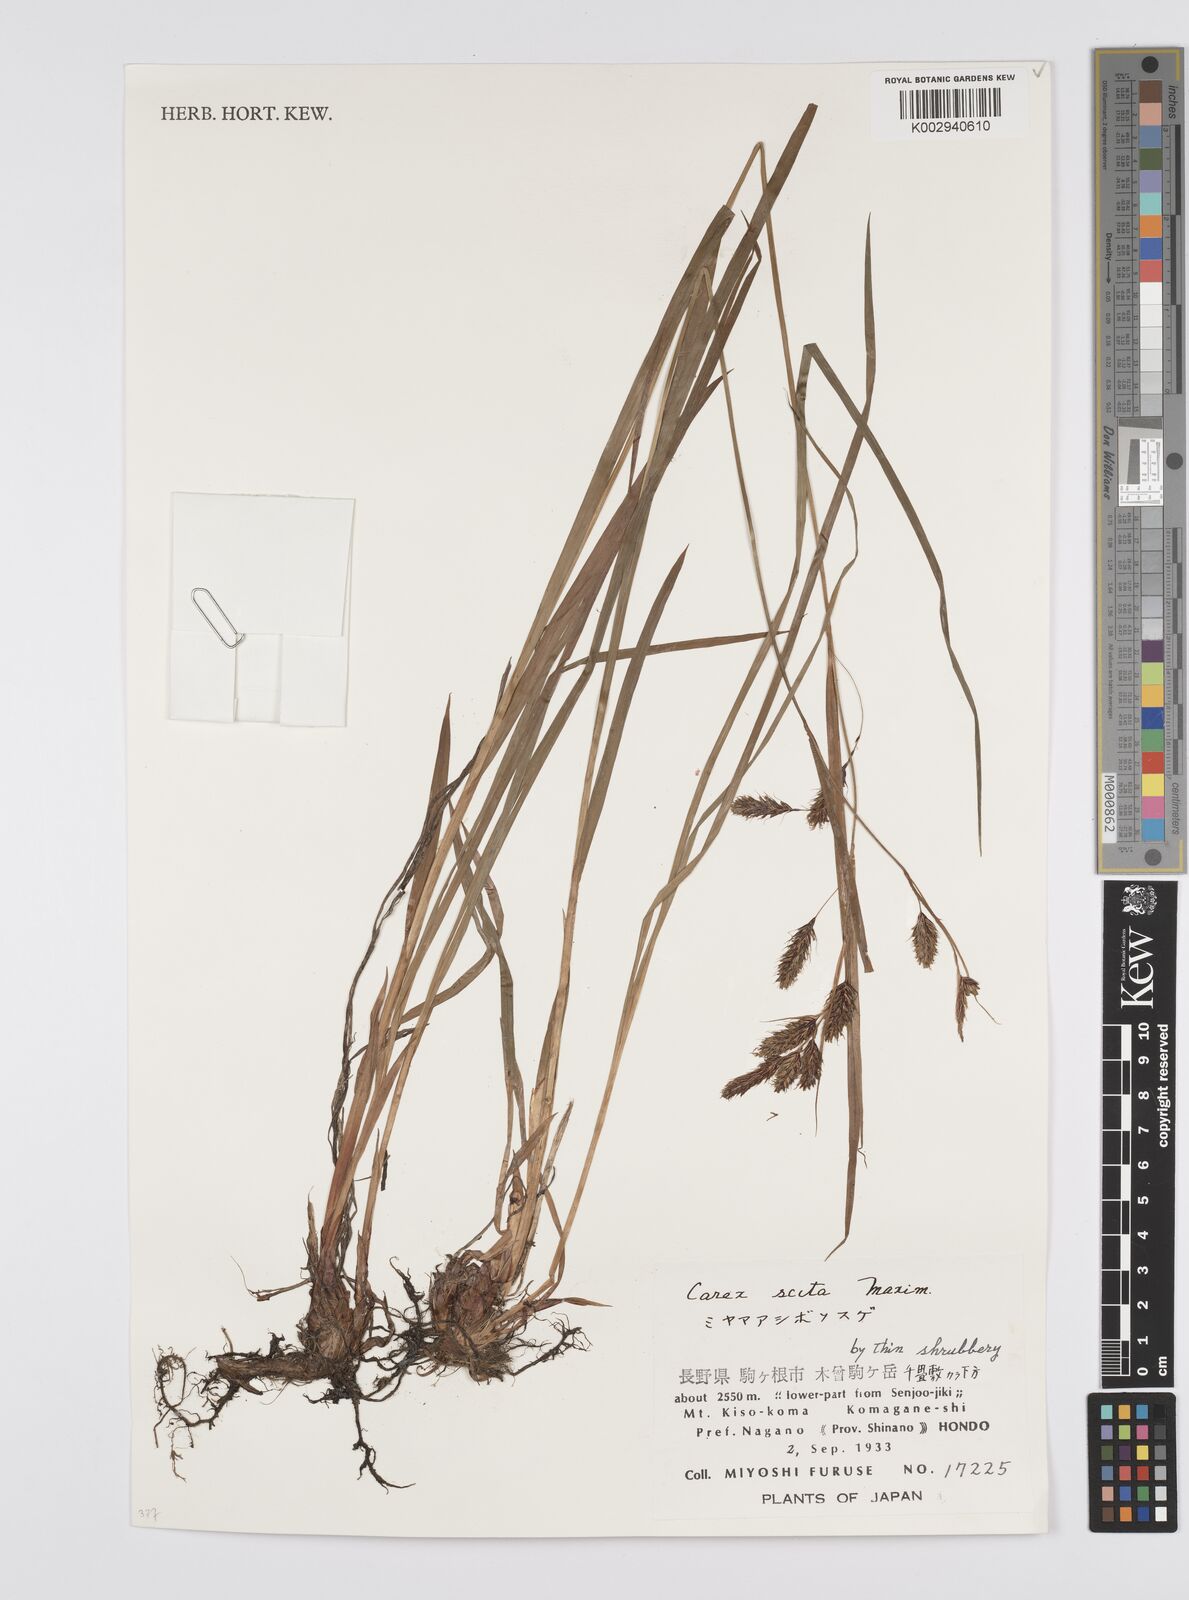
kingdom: Plantae
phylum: Tracheophyta
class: Liliopsida
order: Poales
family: Cyperaceae
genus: Carex
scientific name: Carex scita
